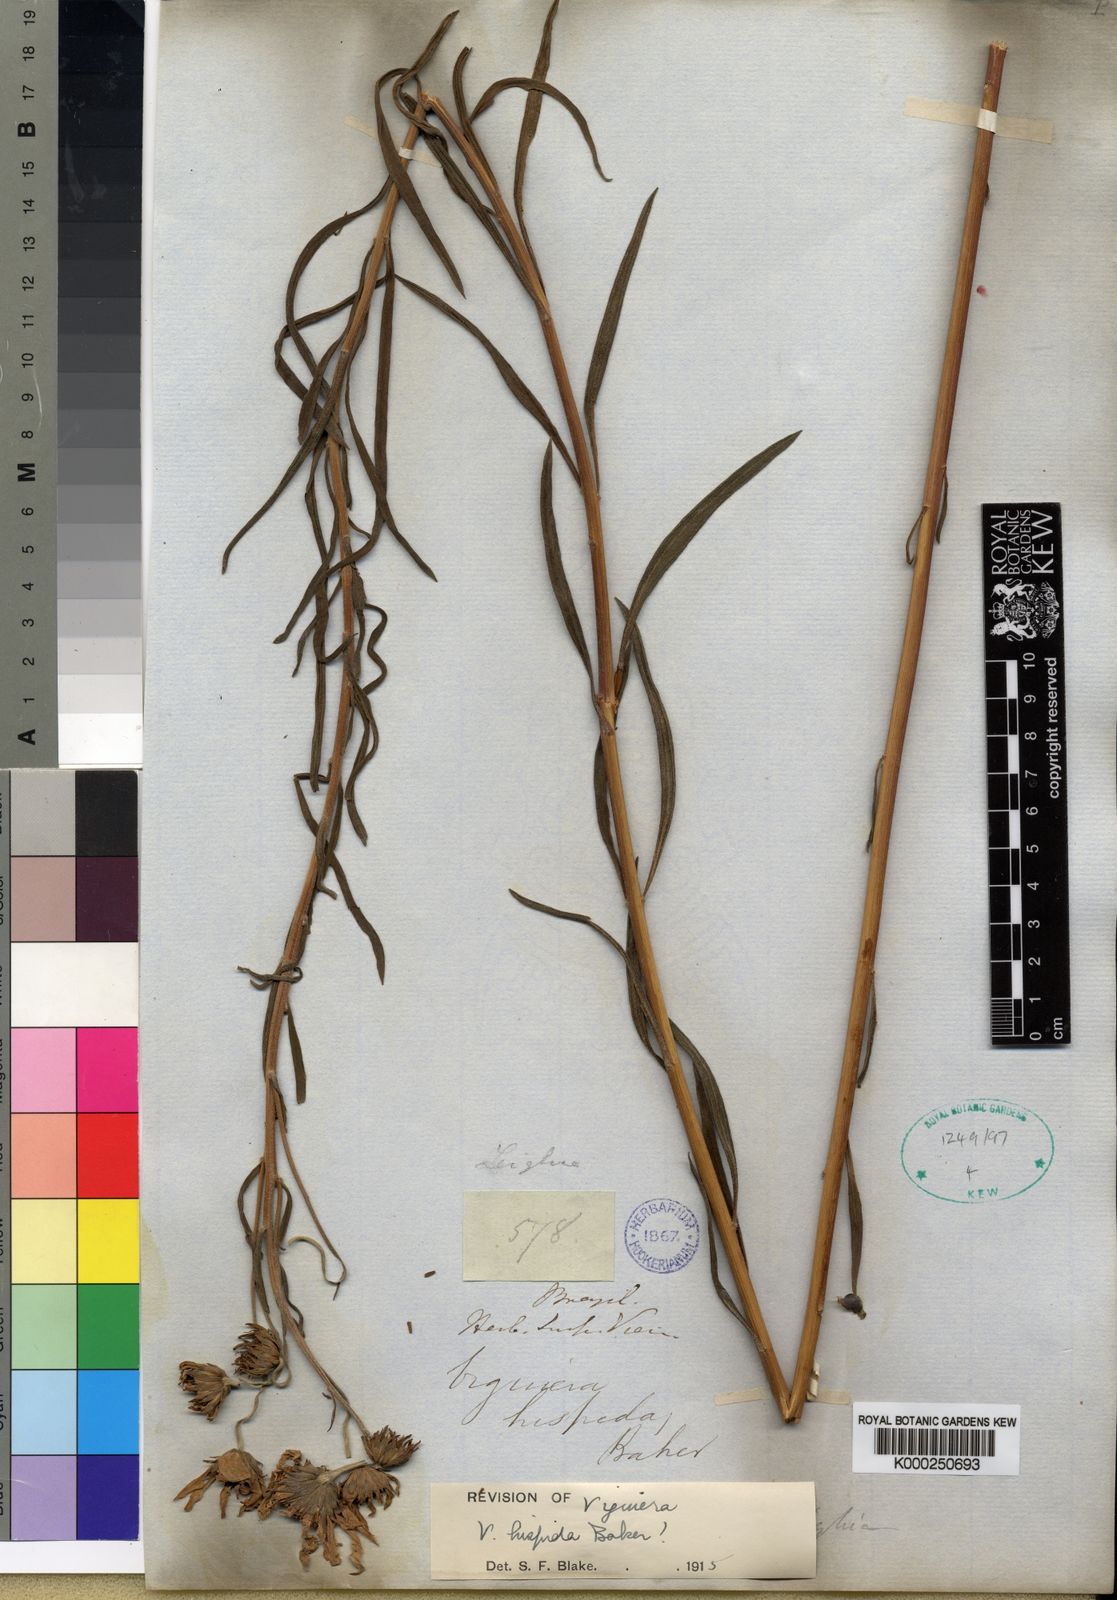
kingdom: Plantae
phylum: Tracheophyta
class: Magnoliopsida
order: Asterales
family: Asteraceae
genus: Aldama
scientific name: Aldama goyazii
